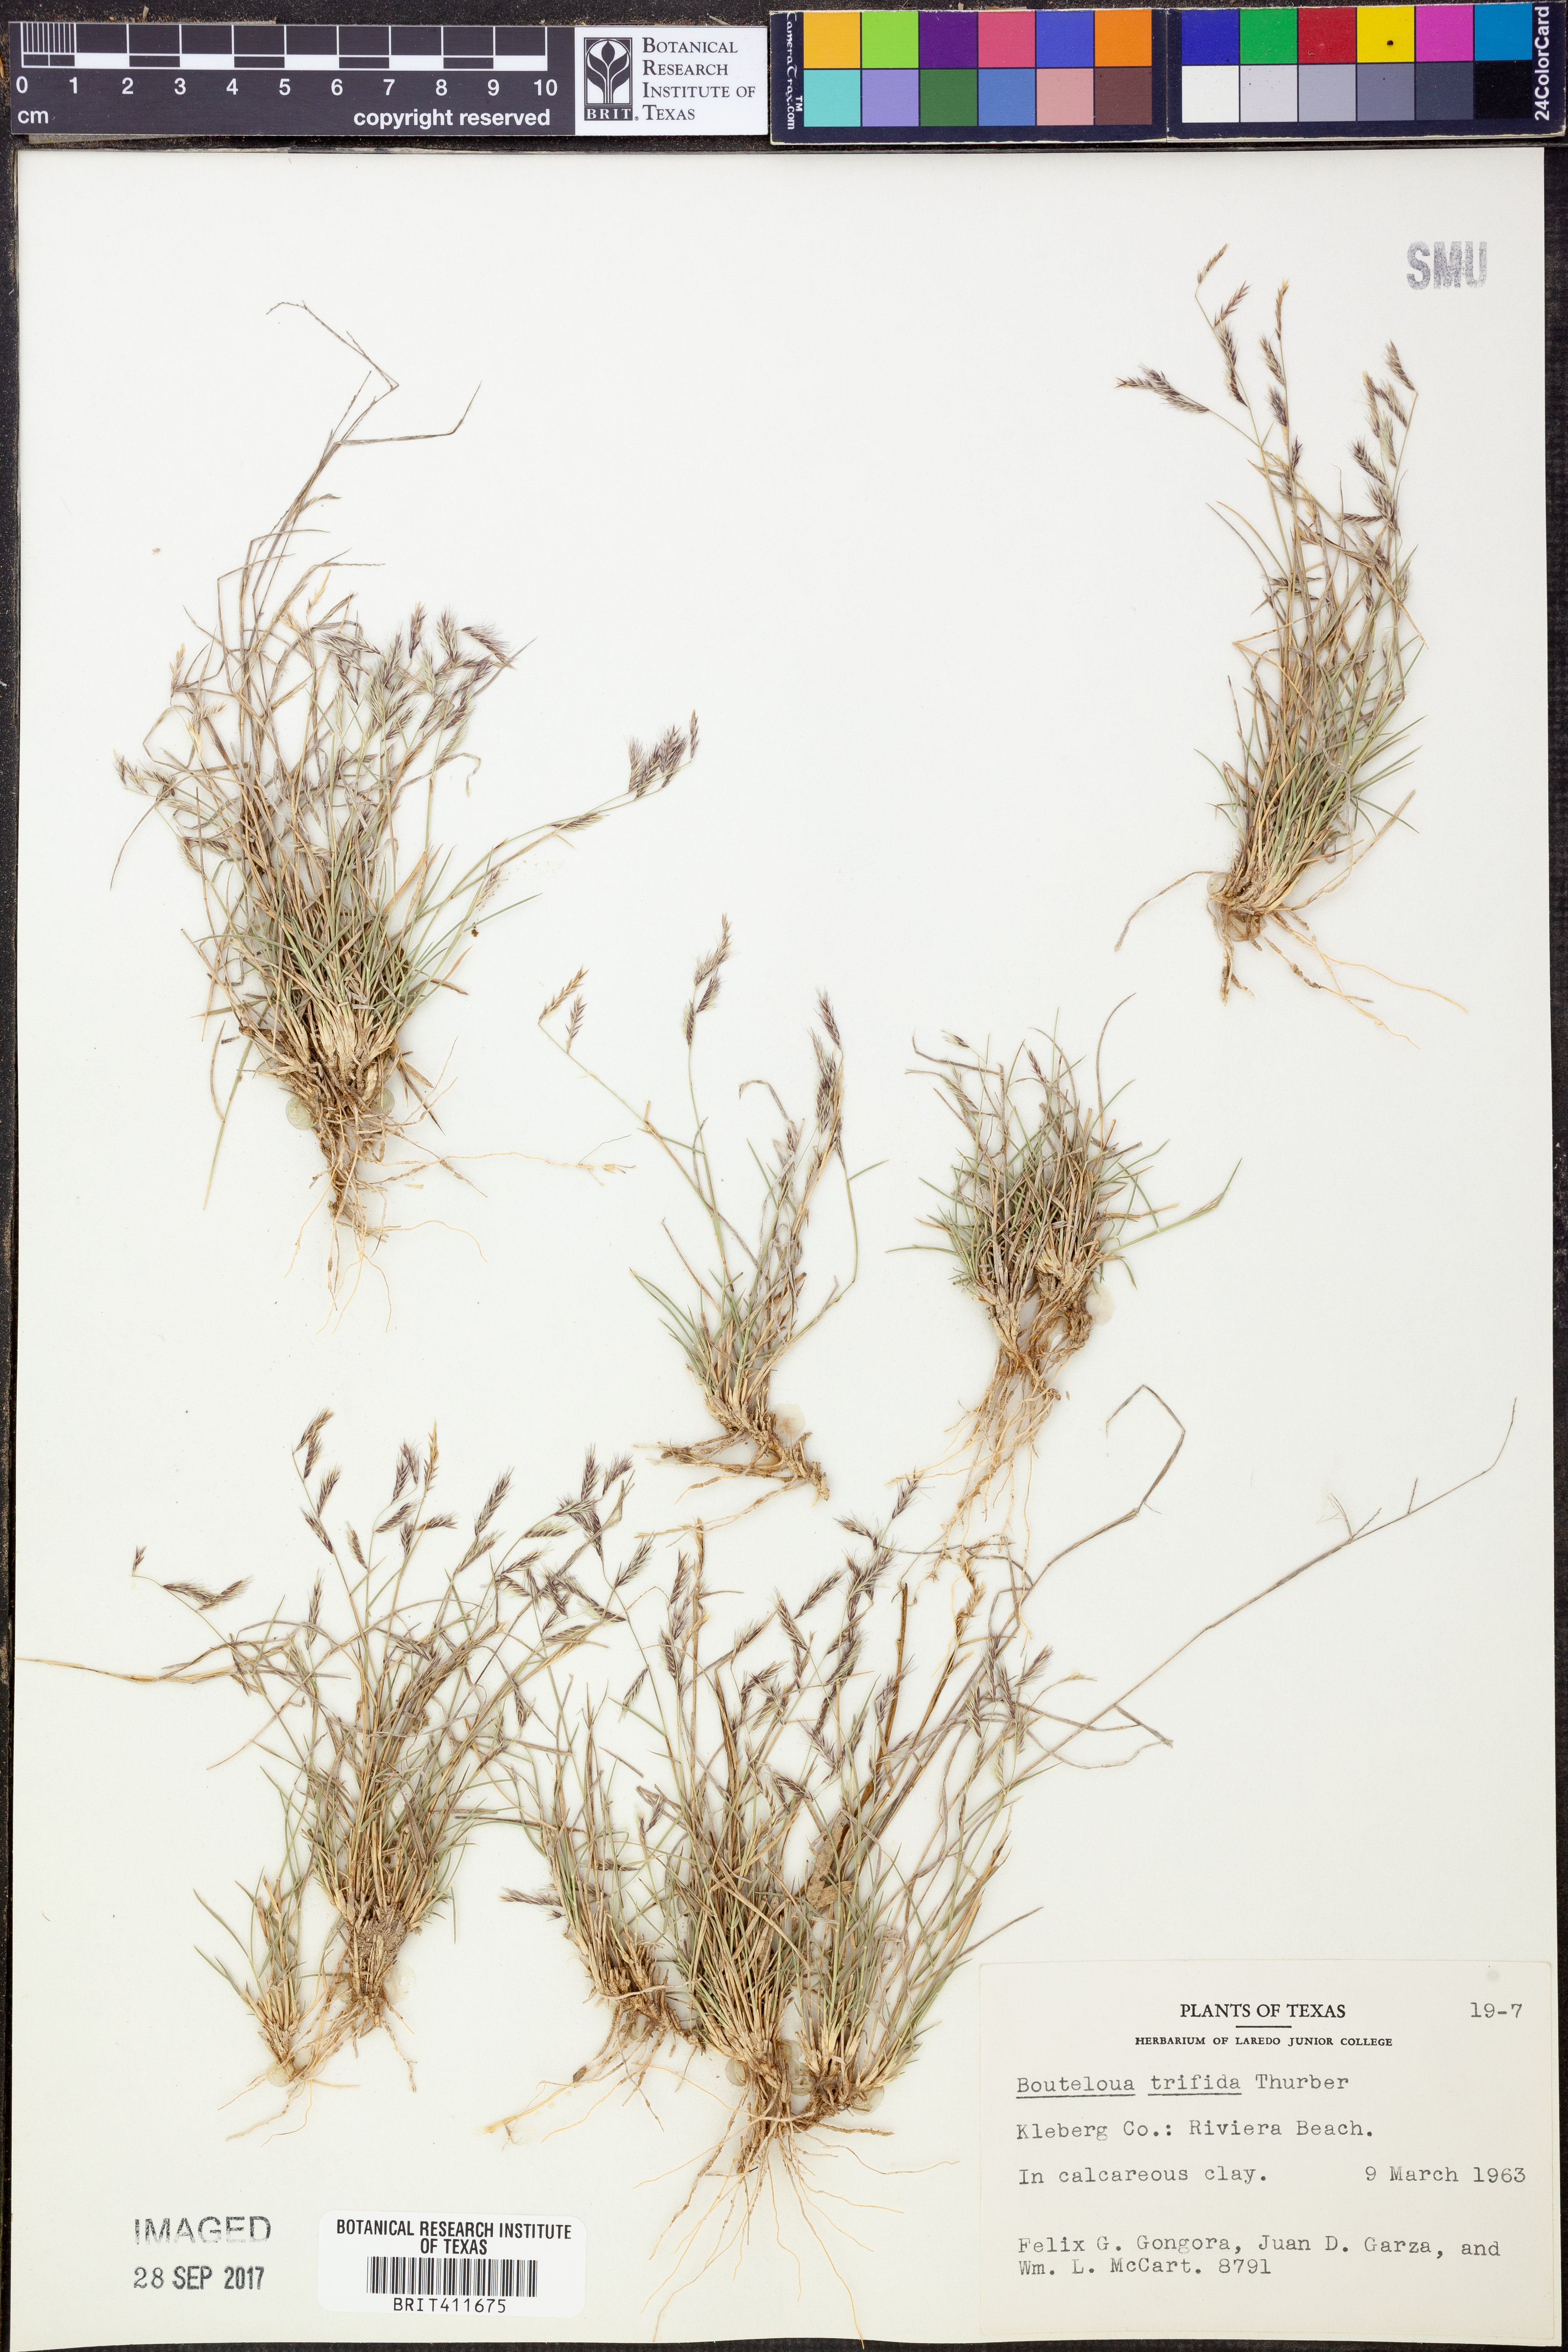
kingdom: Plantae
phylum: Tracheophyta
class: Liliopsida
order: Poales
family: Poaceae
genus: Bouteloua
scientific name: Bouteloua trifida
